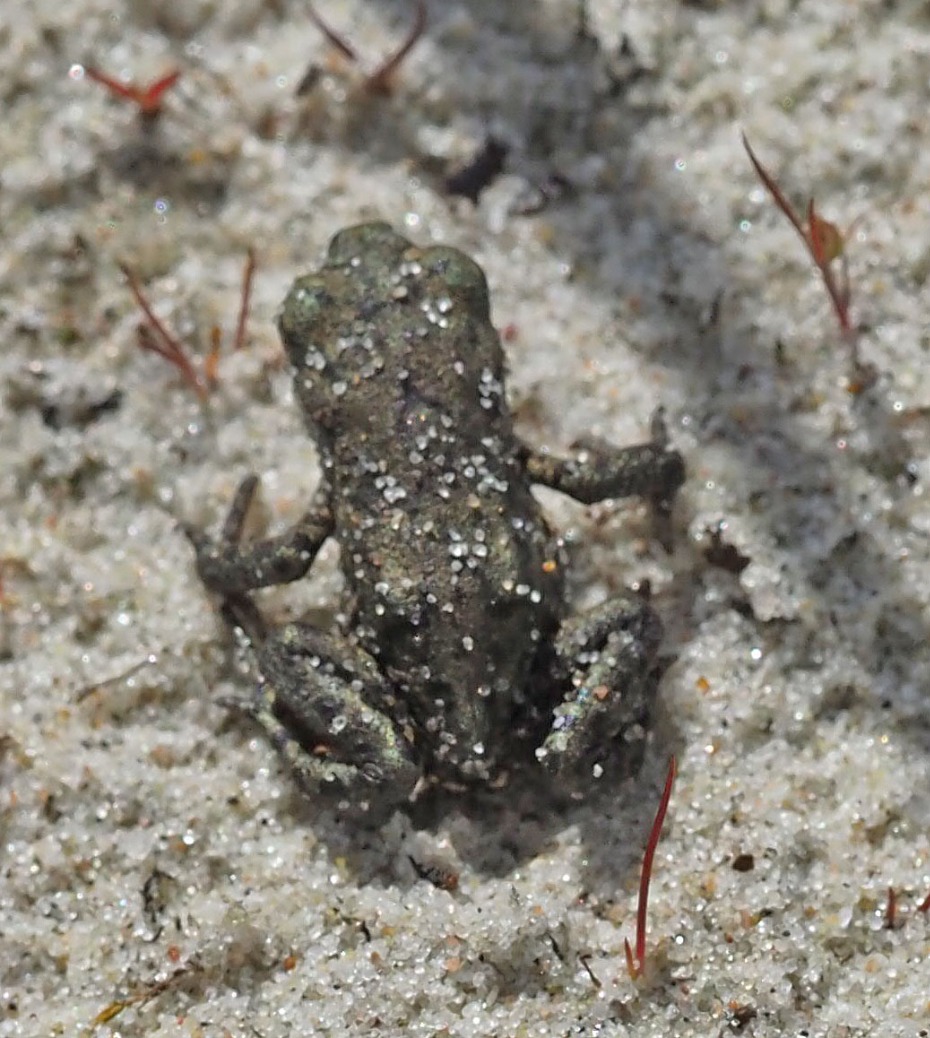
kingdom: Animalia
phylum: Chordata
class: Amphibia
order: Anura
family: Bufonidae
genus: Bufo
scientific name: Bufo bufo
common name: Skrubtudse
